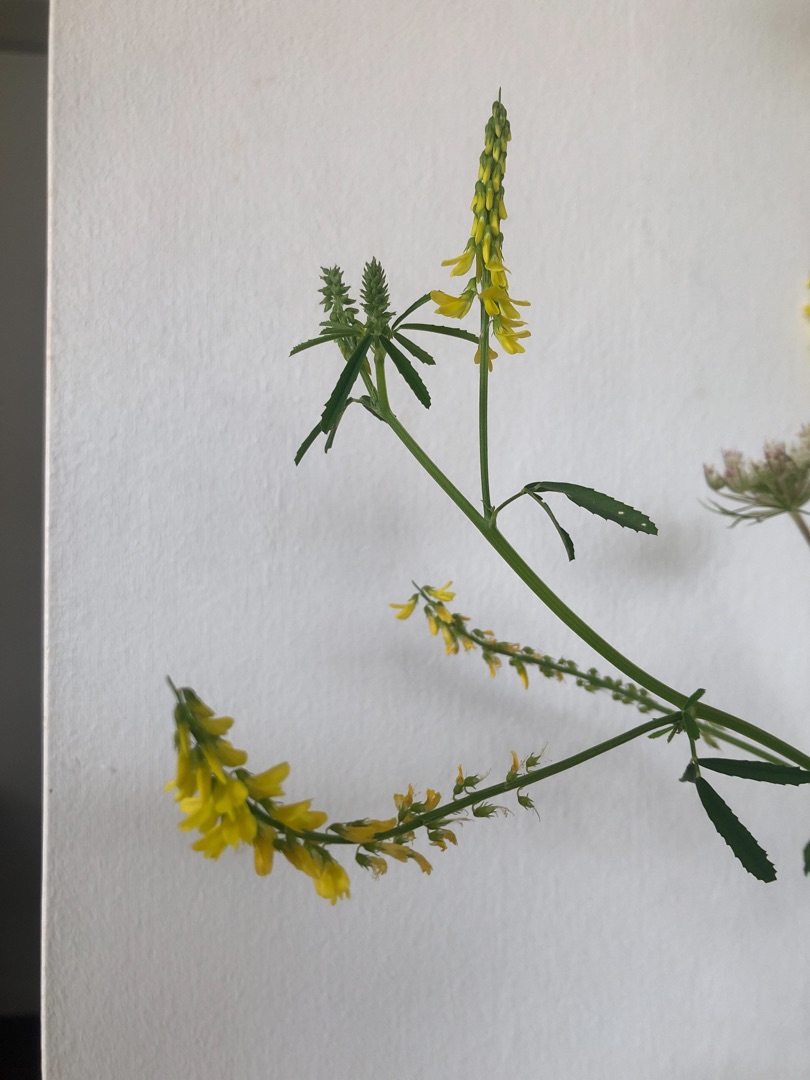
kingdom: Plantae
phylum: Tracheophyta
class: Magnoliopsida
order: Fabales
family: Fabaceae
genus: Melilotus
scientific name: Melilotus officinalis
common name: Mark-stenkløver
